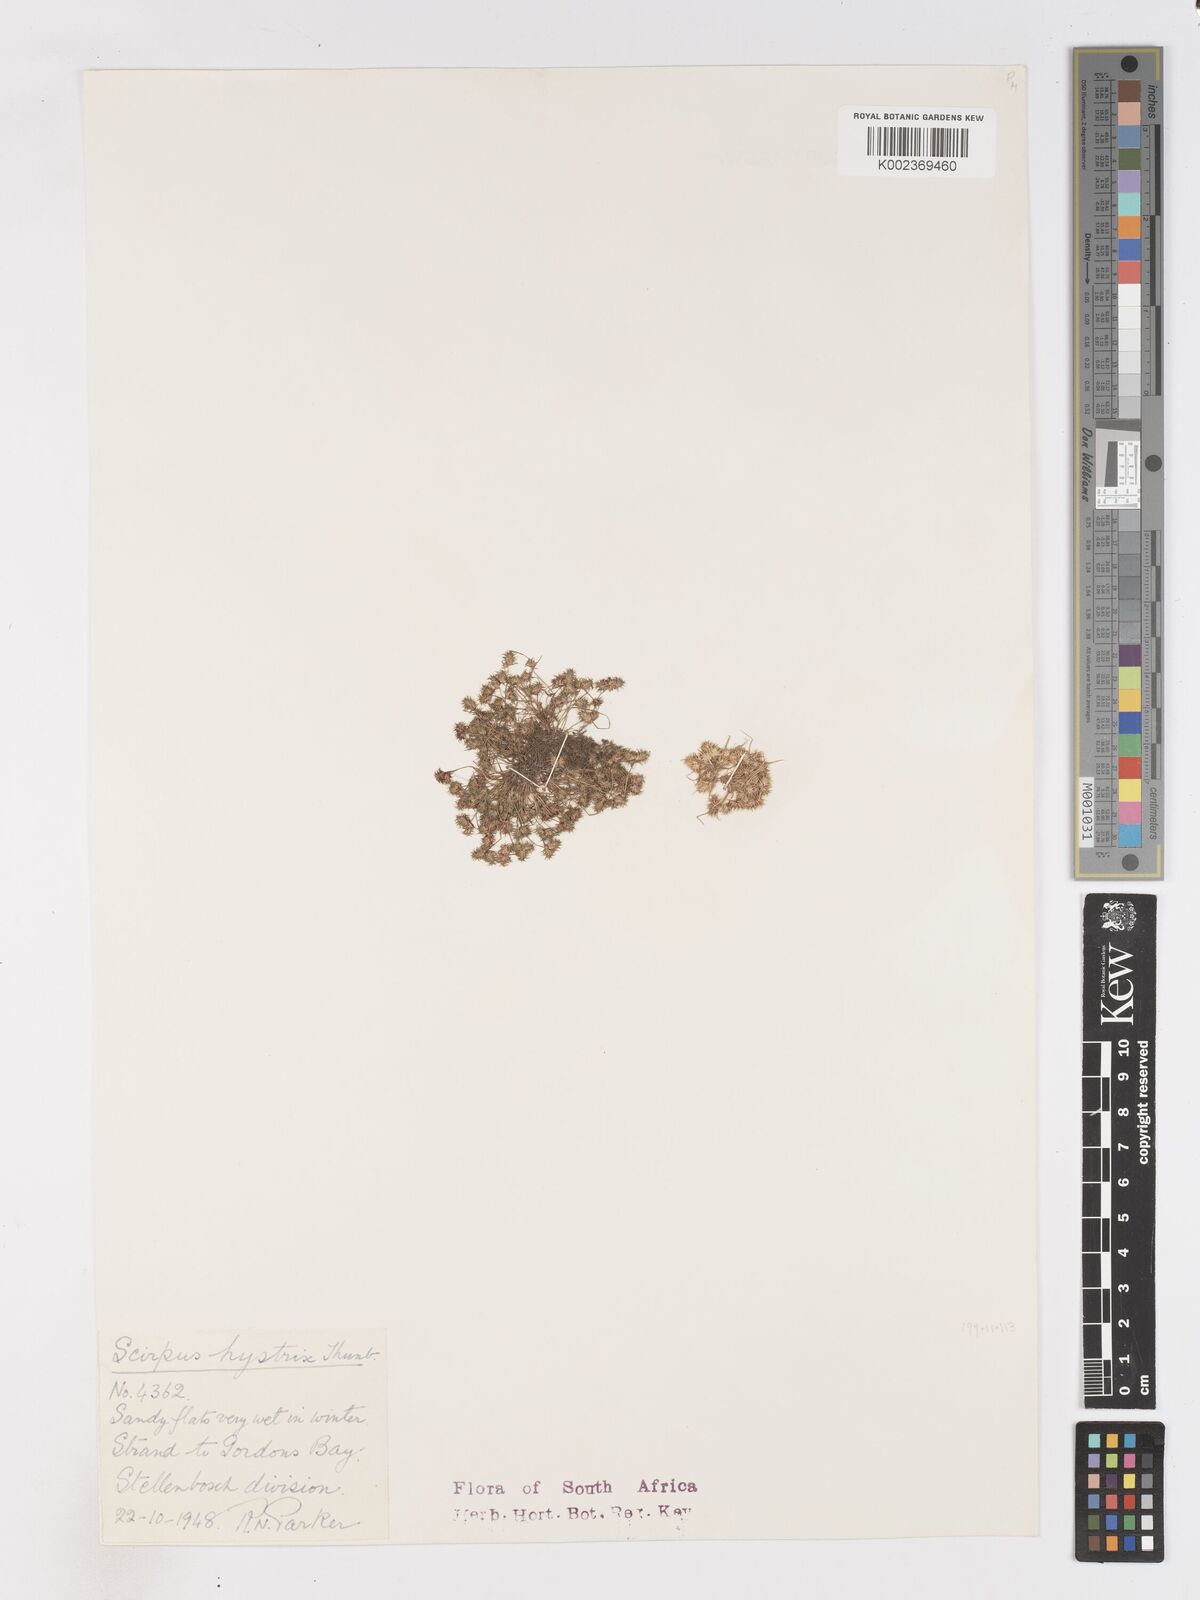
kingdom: Plantae
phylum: Tracheophyta
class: Liliopsida
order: Poales
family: Cyperaceae
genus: Isolepis
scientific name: Isolepis hystrix
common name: Bottlebrush bulrush
